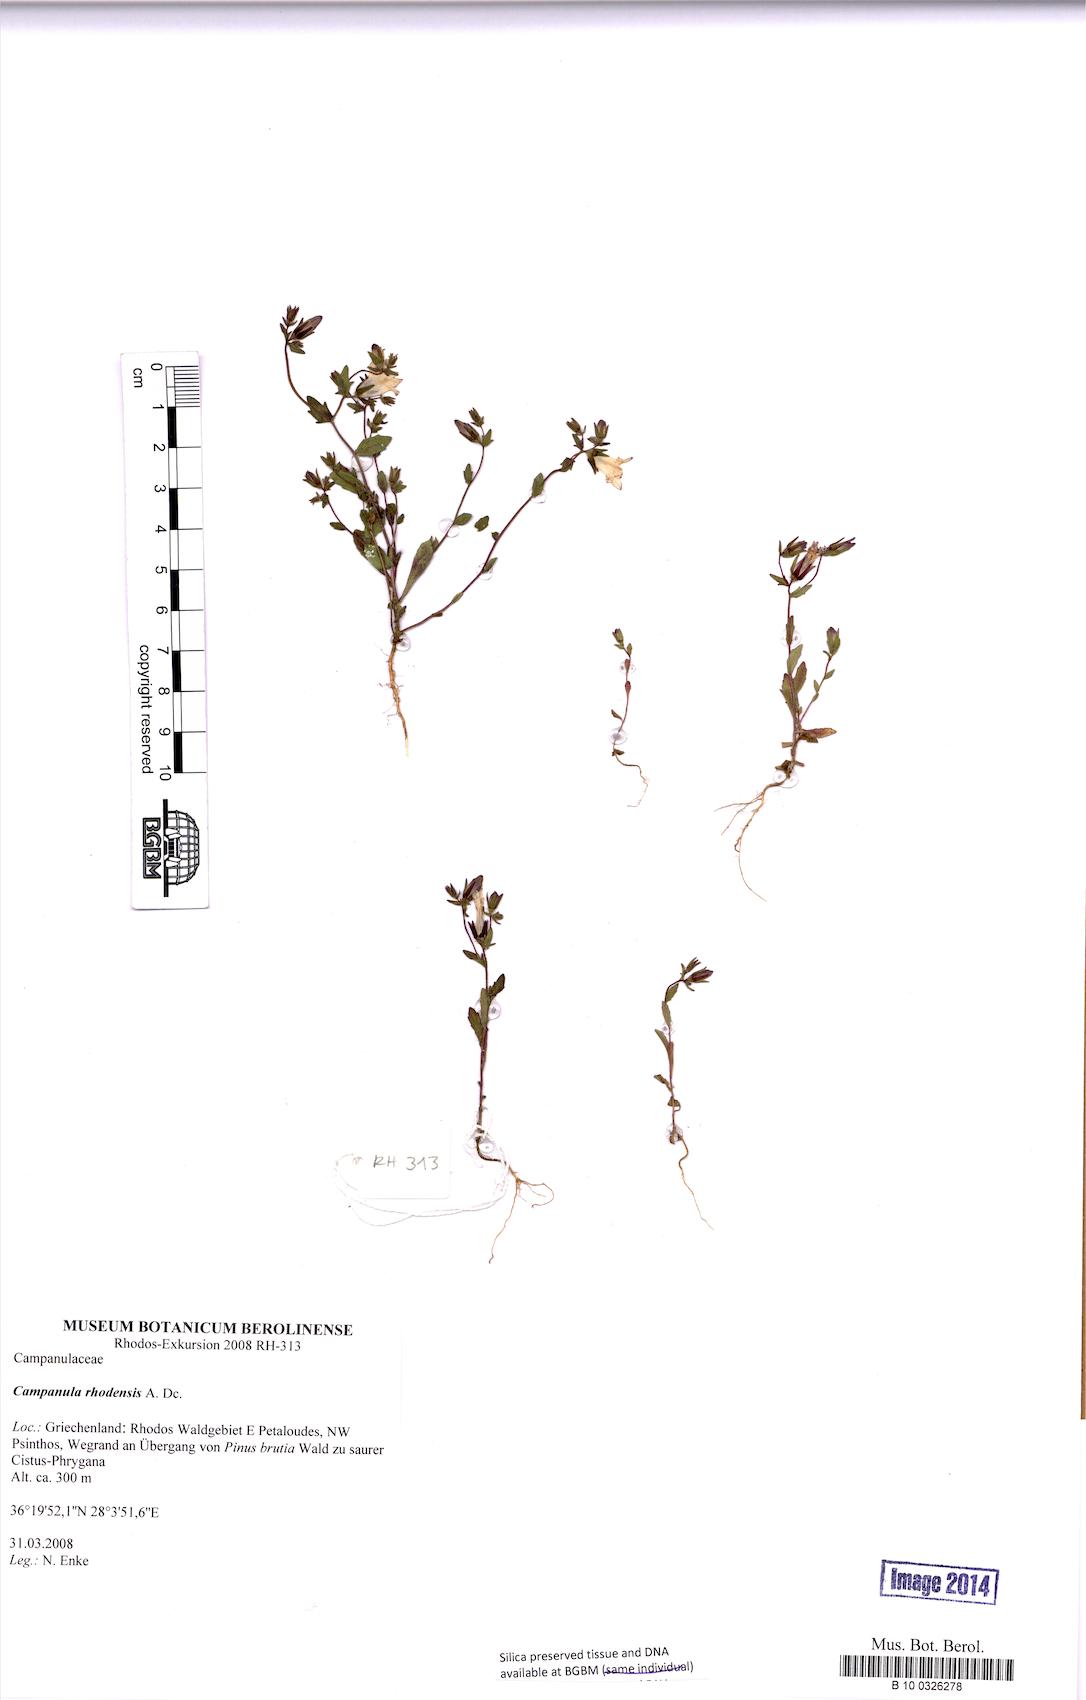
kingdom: Plantae
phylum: Tracheophyta
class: Magnoliopsida
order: Asterales
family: Campanulaceae
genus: Campanula
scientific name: Campanula rhodensis
